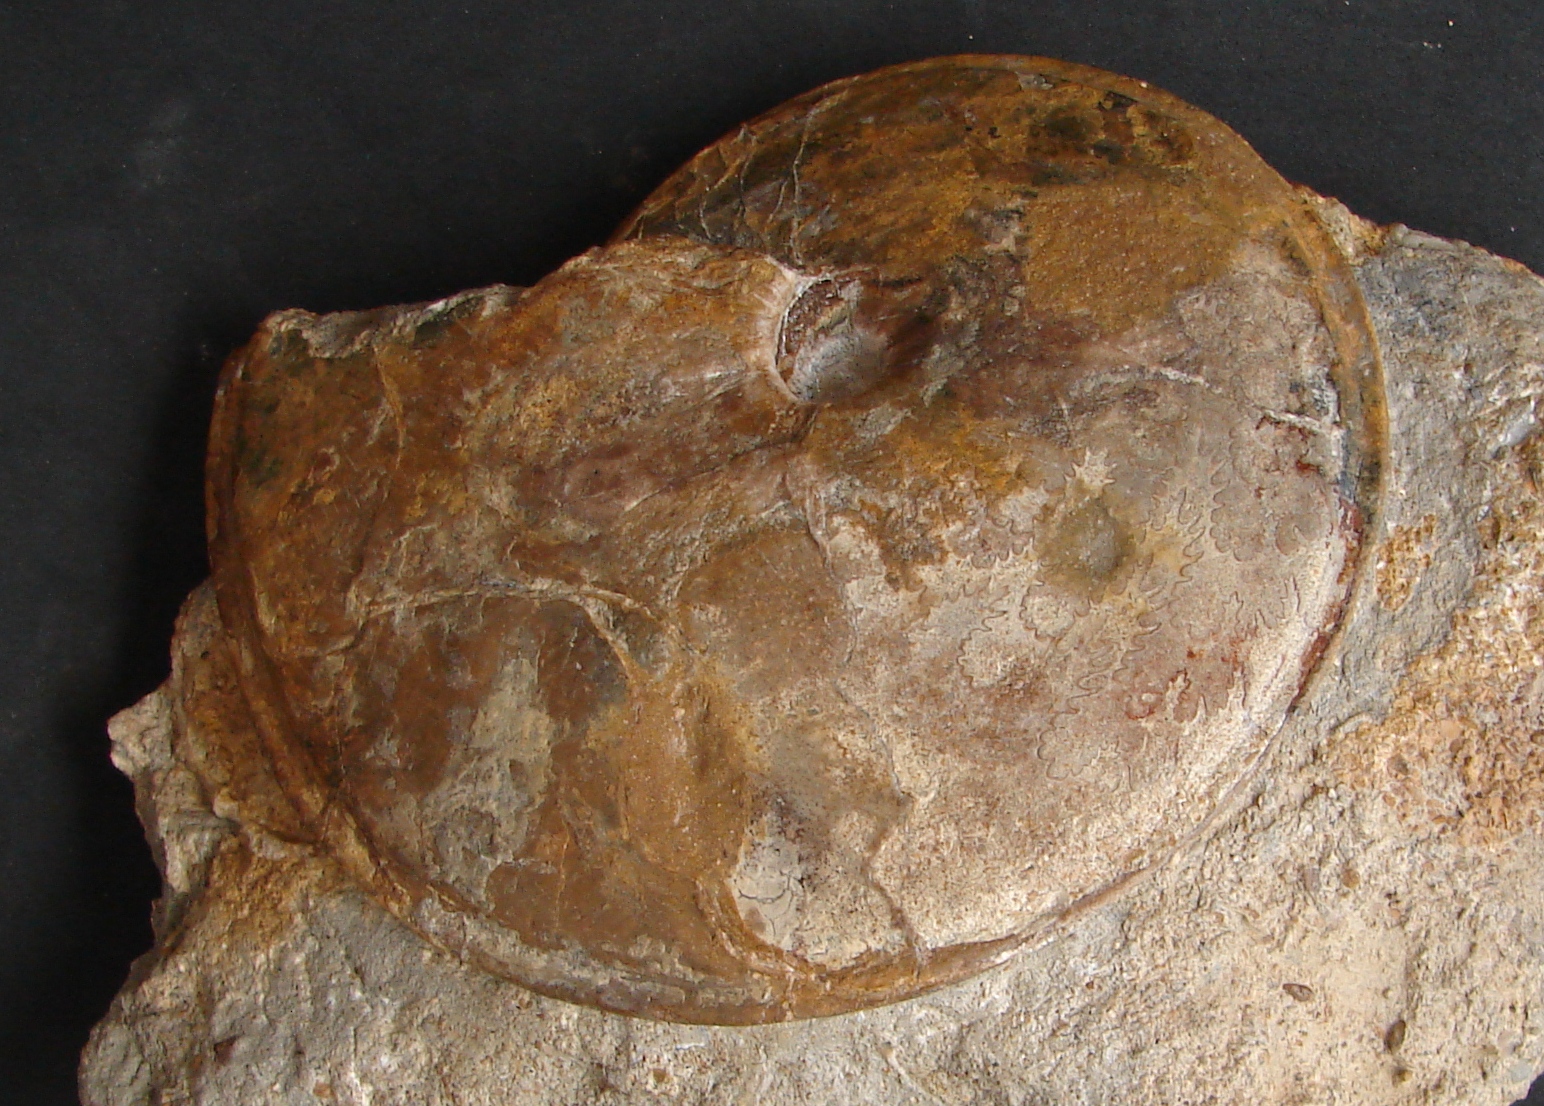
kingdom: Animalia
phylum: Mollusca
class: Cephalopoda
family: Graphoceratidae
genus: Hyperlioceras
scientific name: Hyperlioceras
